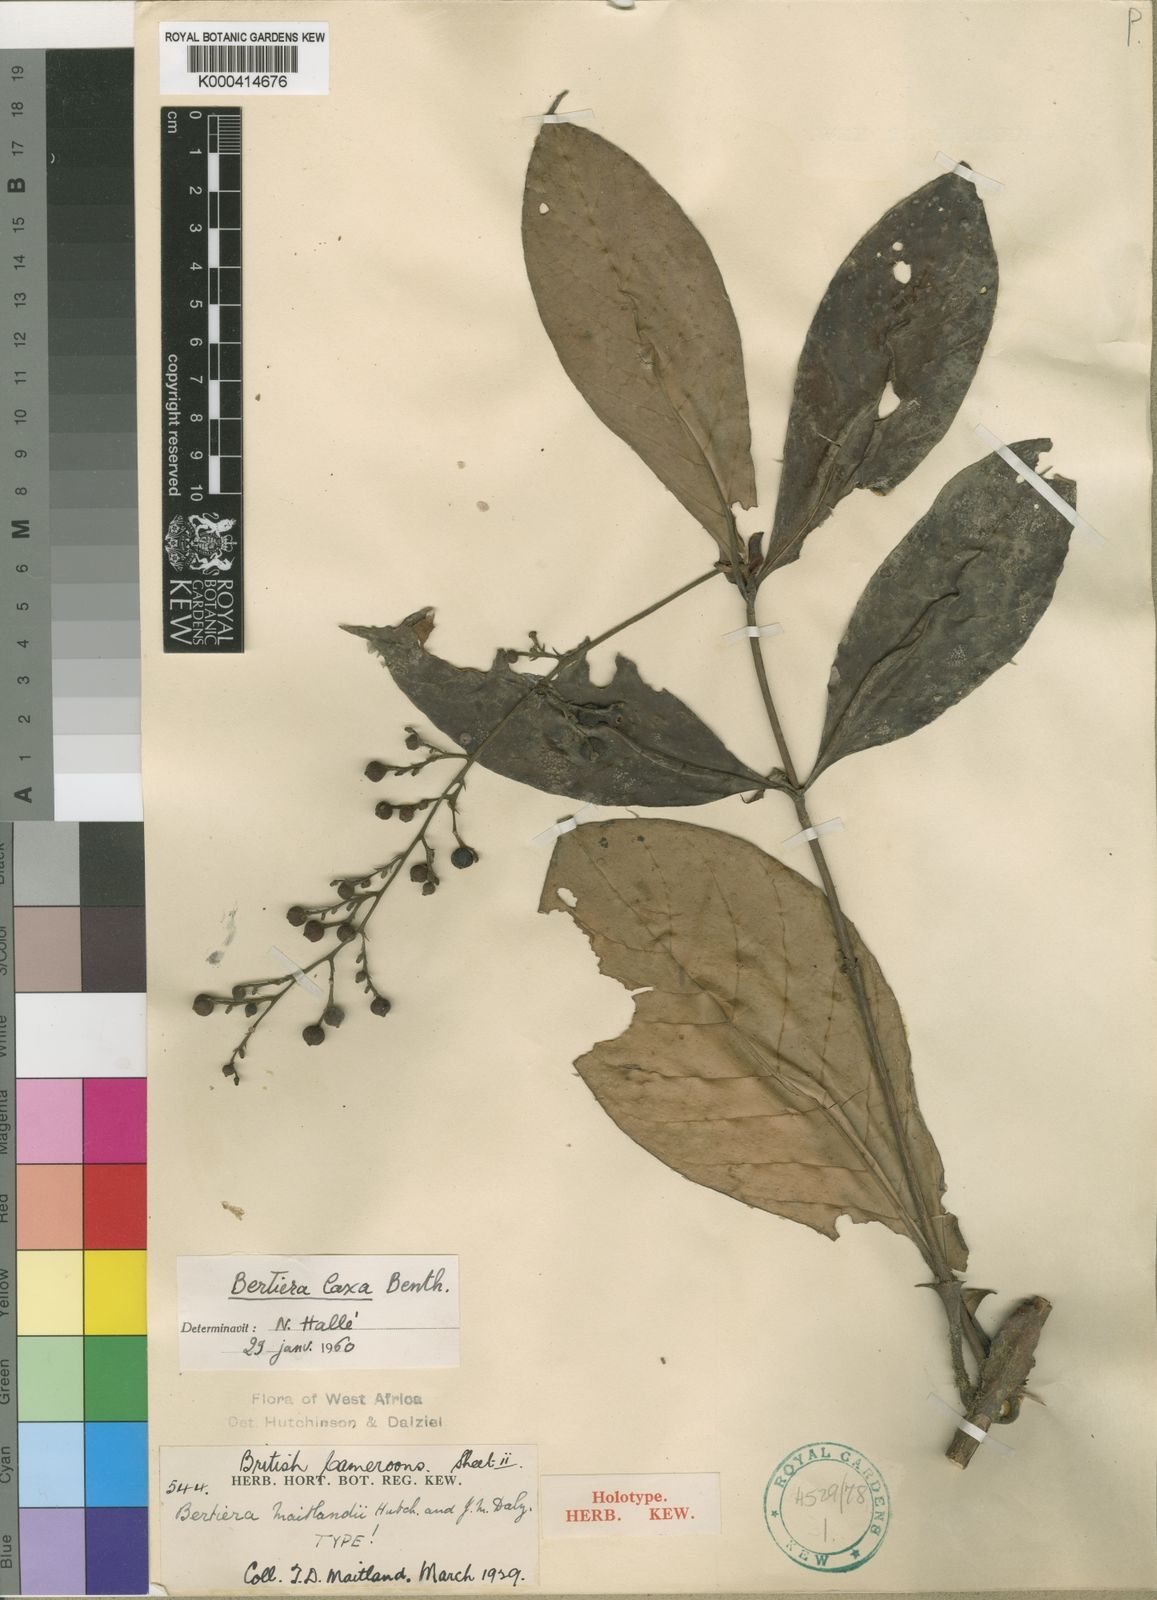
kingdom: Plantae
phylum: Tracheophyta
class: Magnoliopsida
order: Gentianales
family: Rubiaceae
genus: Bertiera
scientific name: Bertiera laxa
